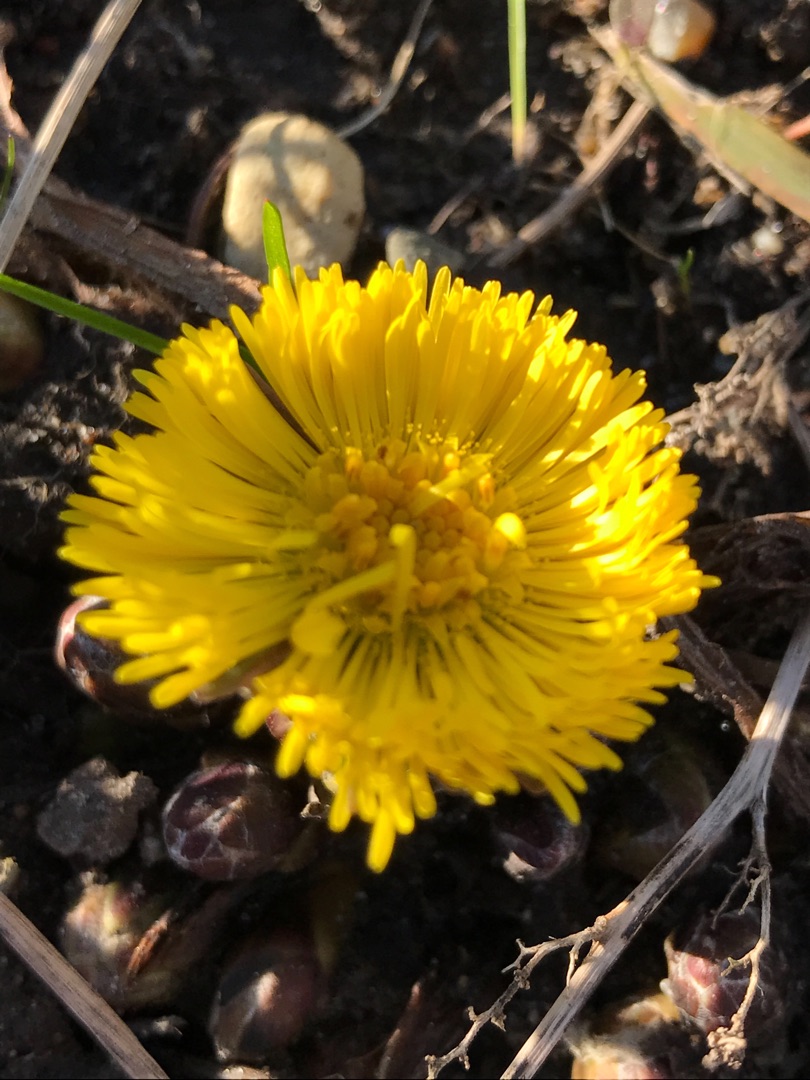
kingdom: Plantae
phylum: Tracheophyta
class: Magnoliopsida
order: Asterales
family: Asteraceae
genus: Tussilago
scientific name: Tussilago farfara
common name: Følfod
